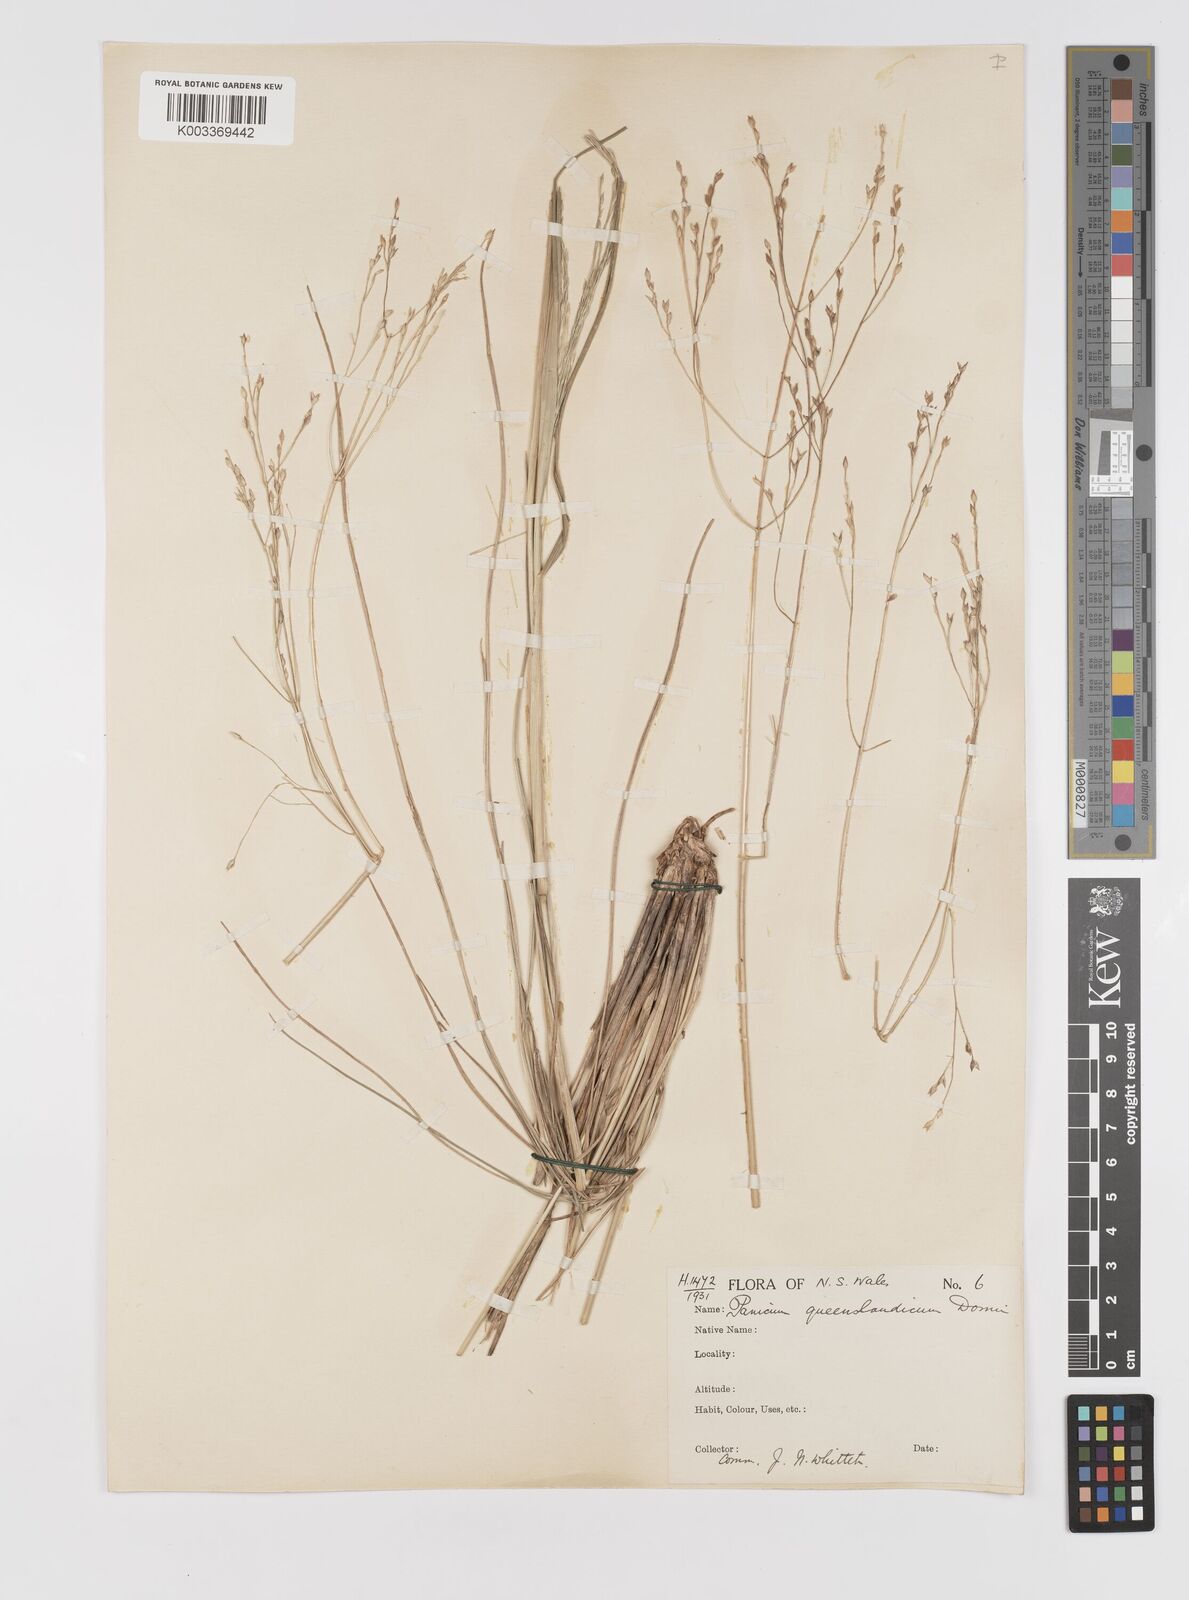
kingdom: Plantae
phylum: Tracheophyta
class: Liliopsida
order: Poales
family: Poaceae
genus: Panicum
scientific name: Panicum queenslandicum
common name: Yabila grass
